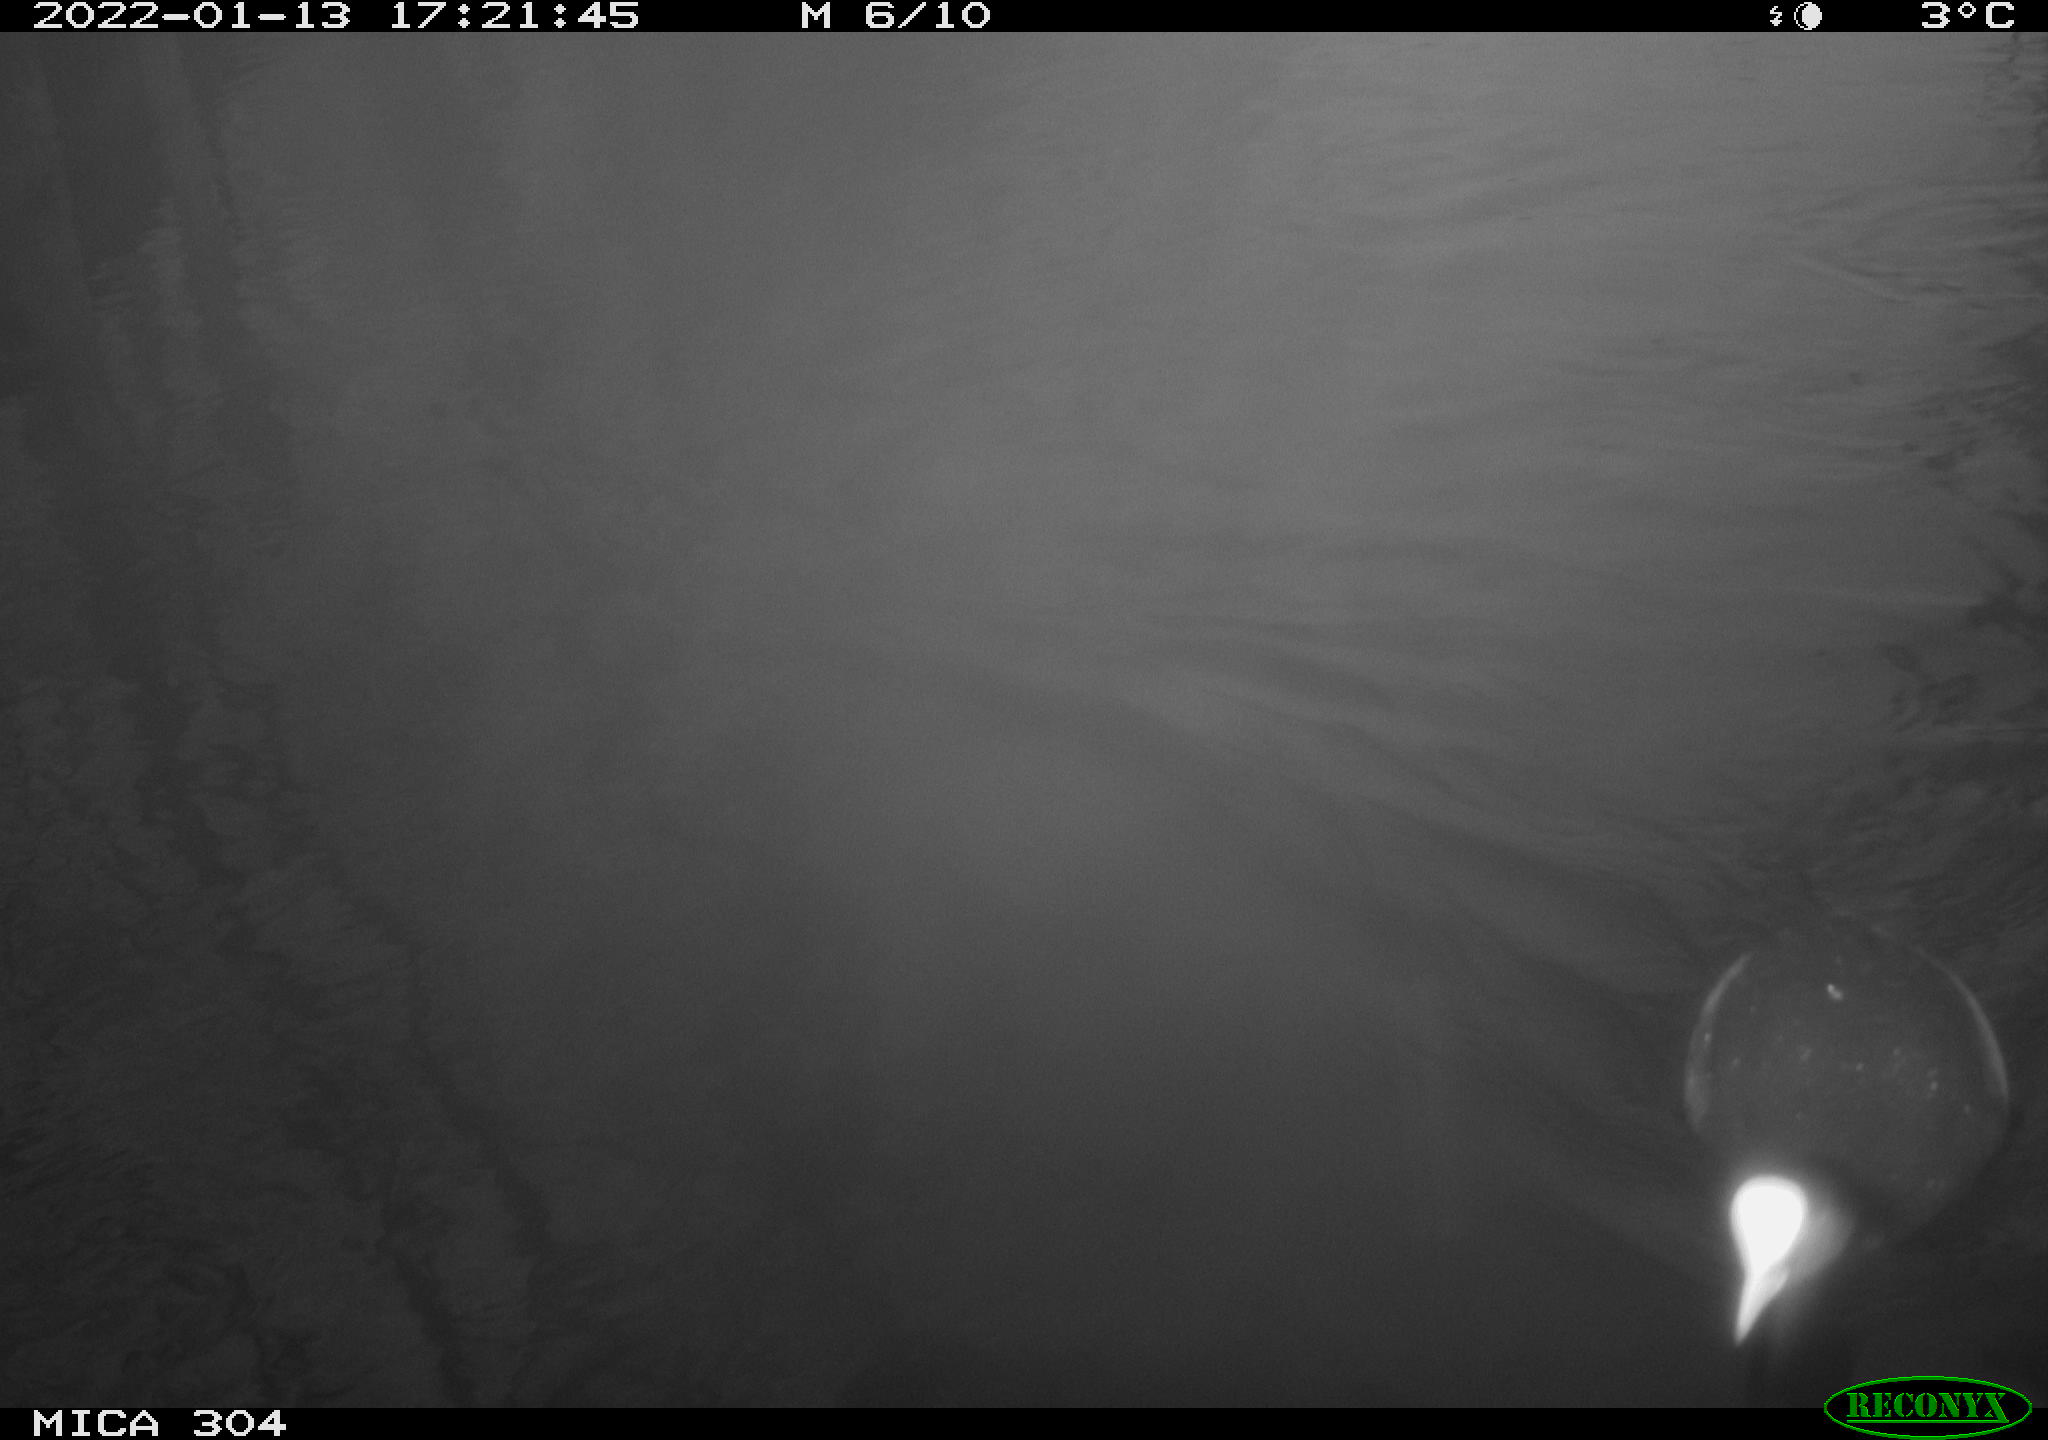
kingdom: Animalia
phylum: Chordata
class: Aves
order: Gruiformes
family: Rallidae
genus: Fulica
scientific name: Fulica atra
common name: Eurasian coot
